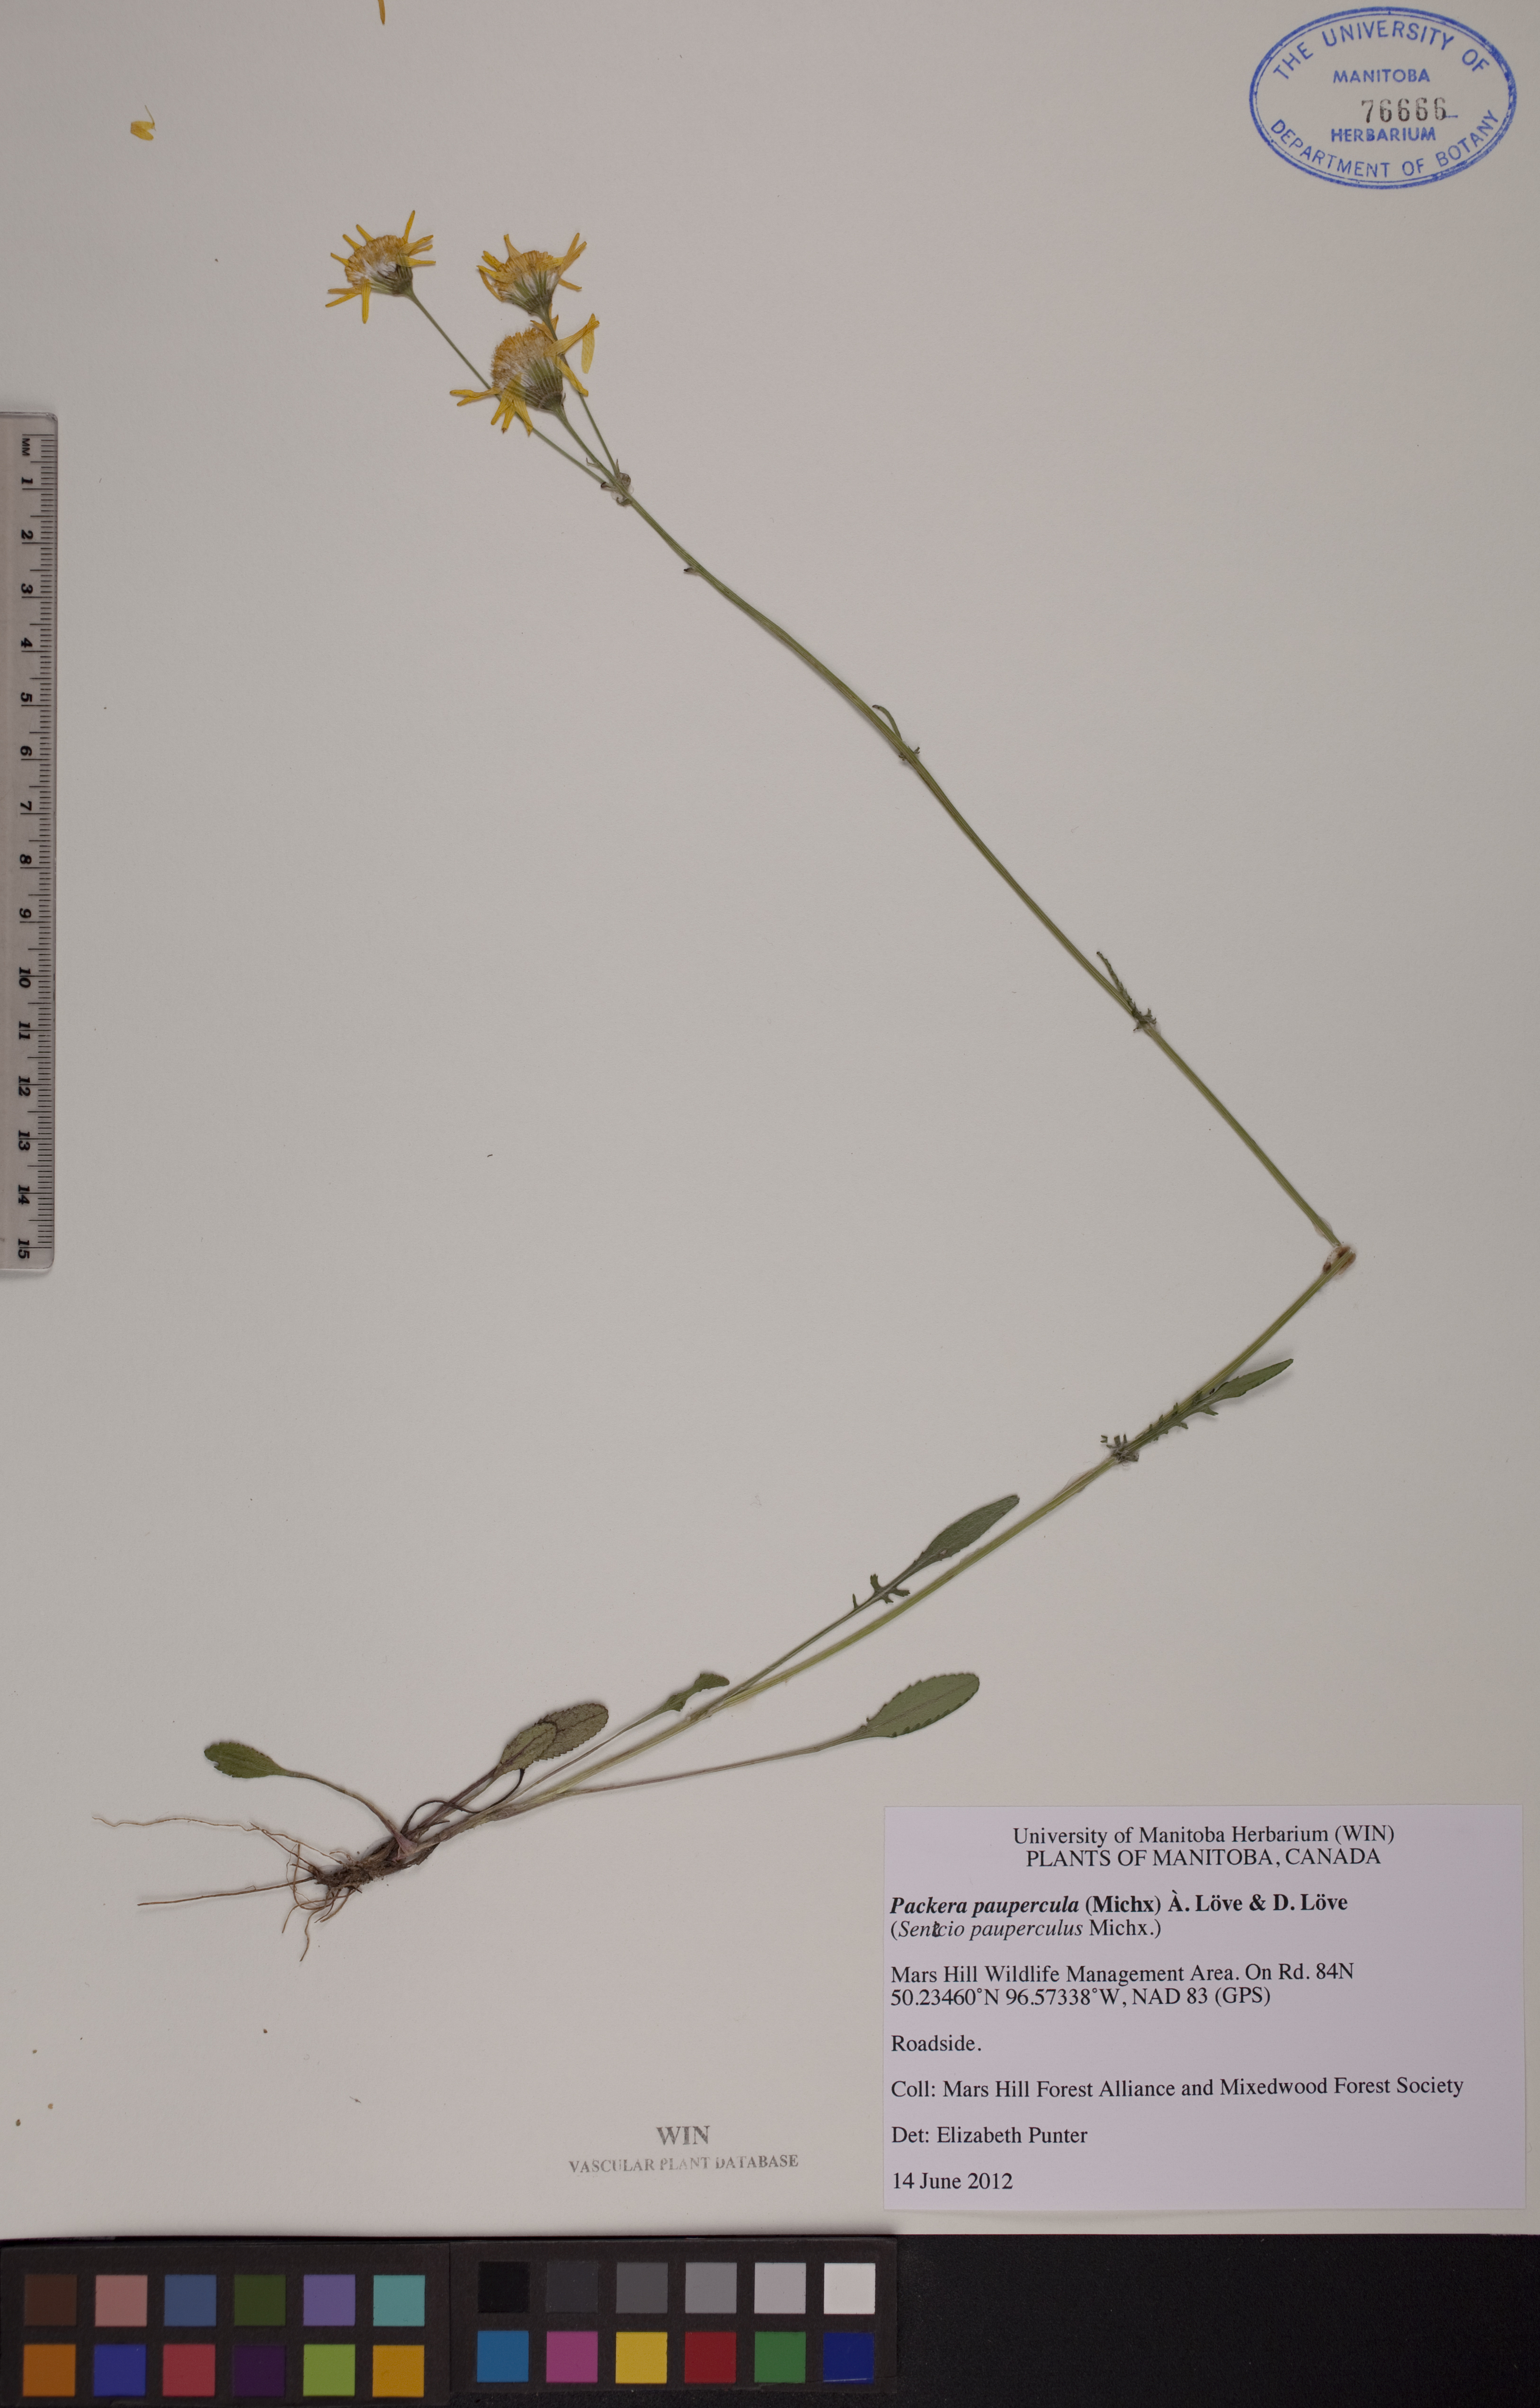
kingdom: Plantae
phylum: Tracheophyta
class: Magnoliopsida
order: Asterales
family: Asteraceae
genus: Packera
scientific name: Packera paupercula
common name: Balsam groundsel
